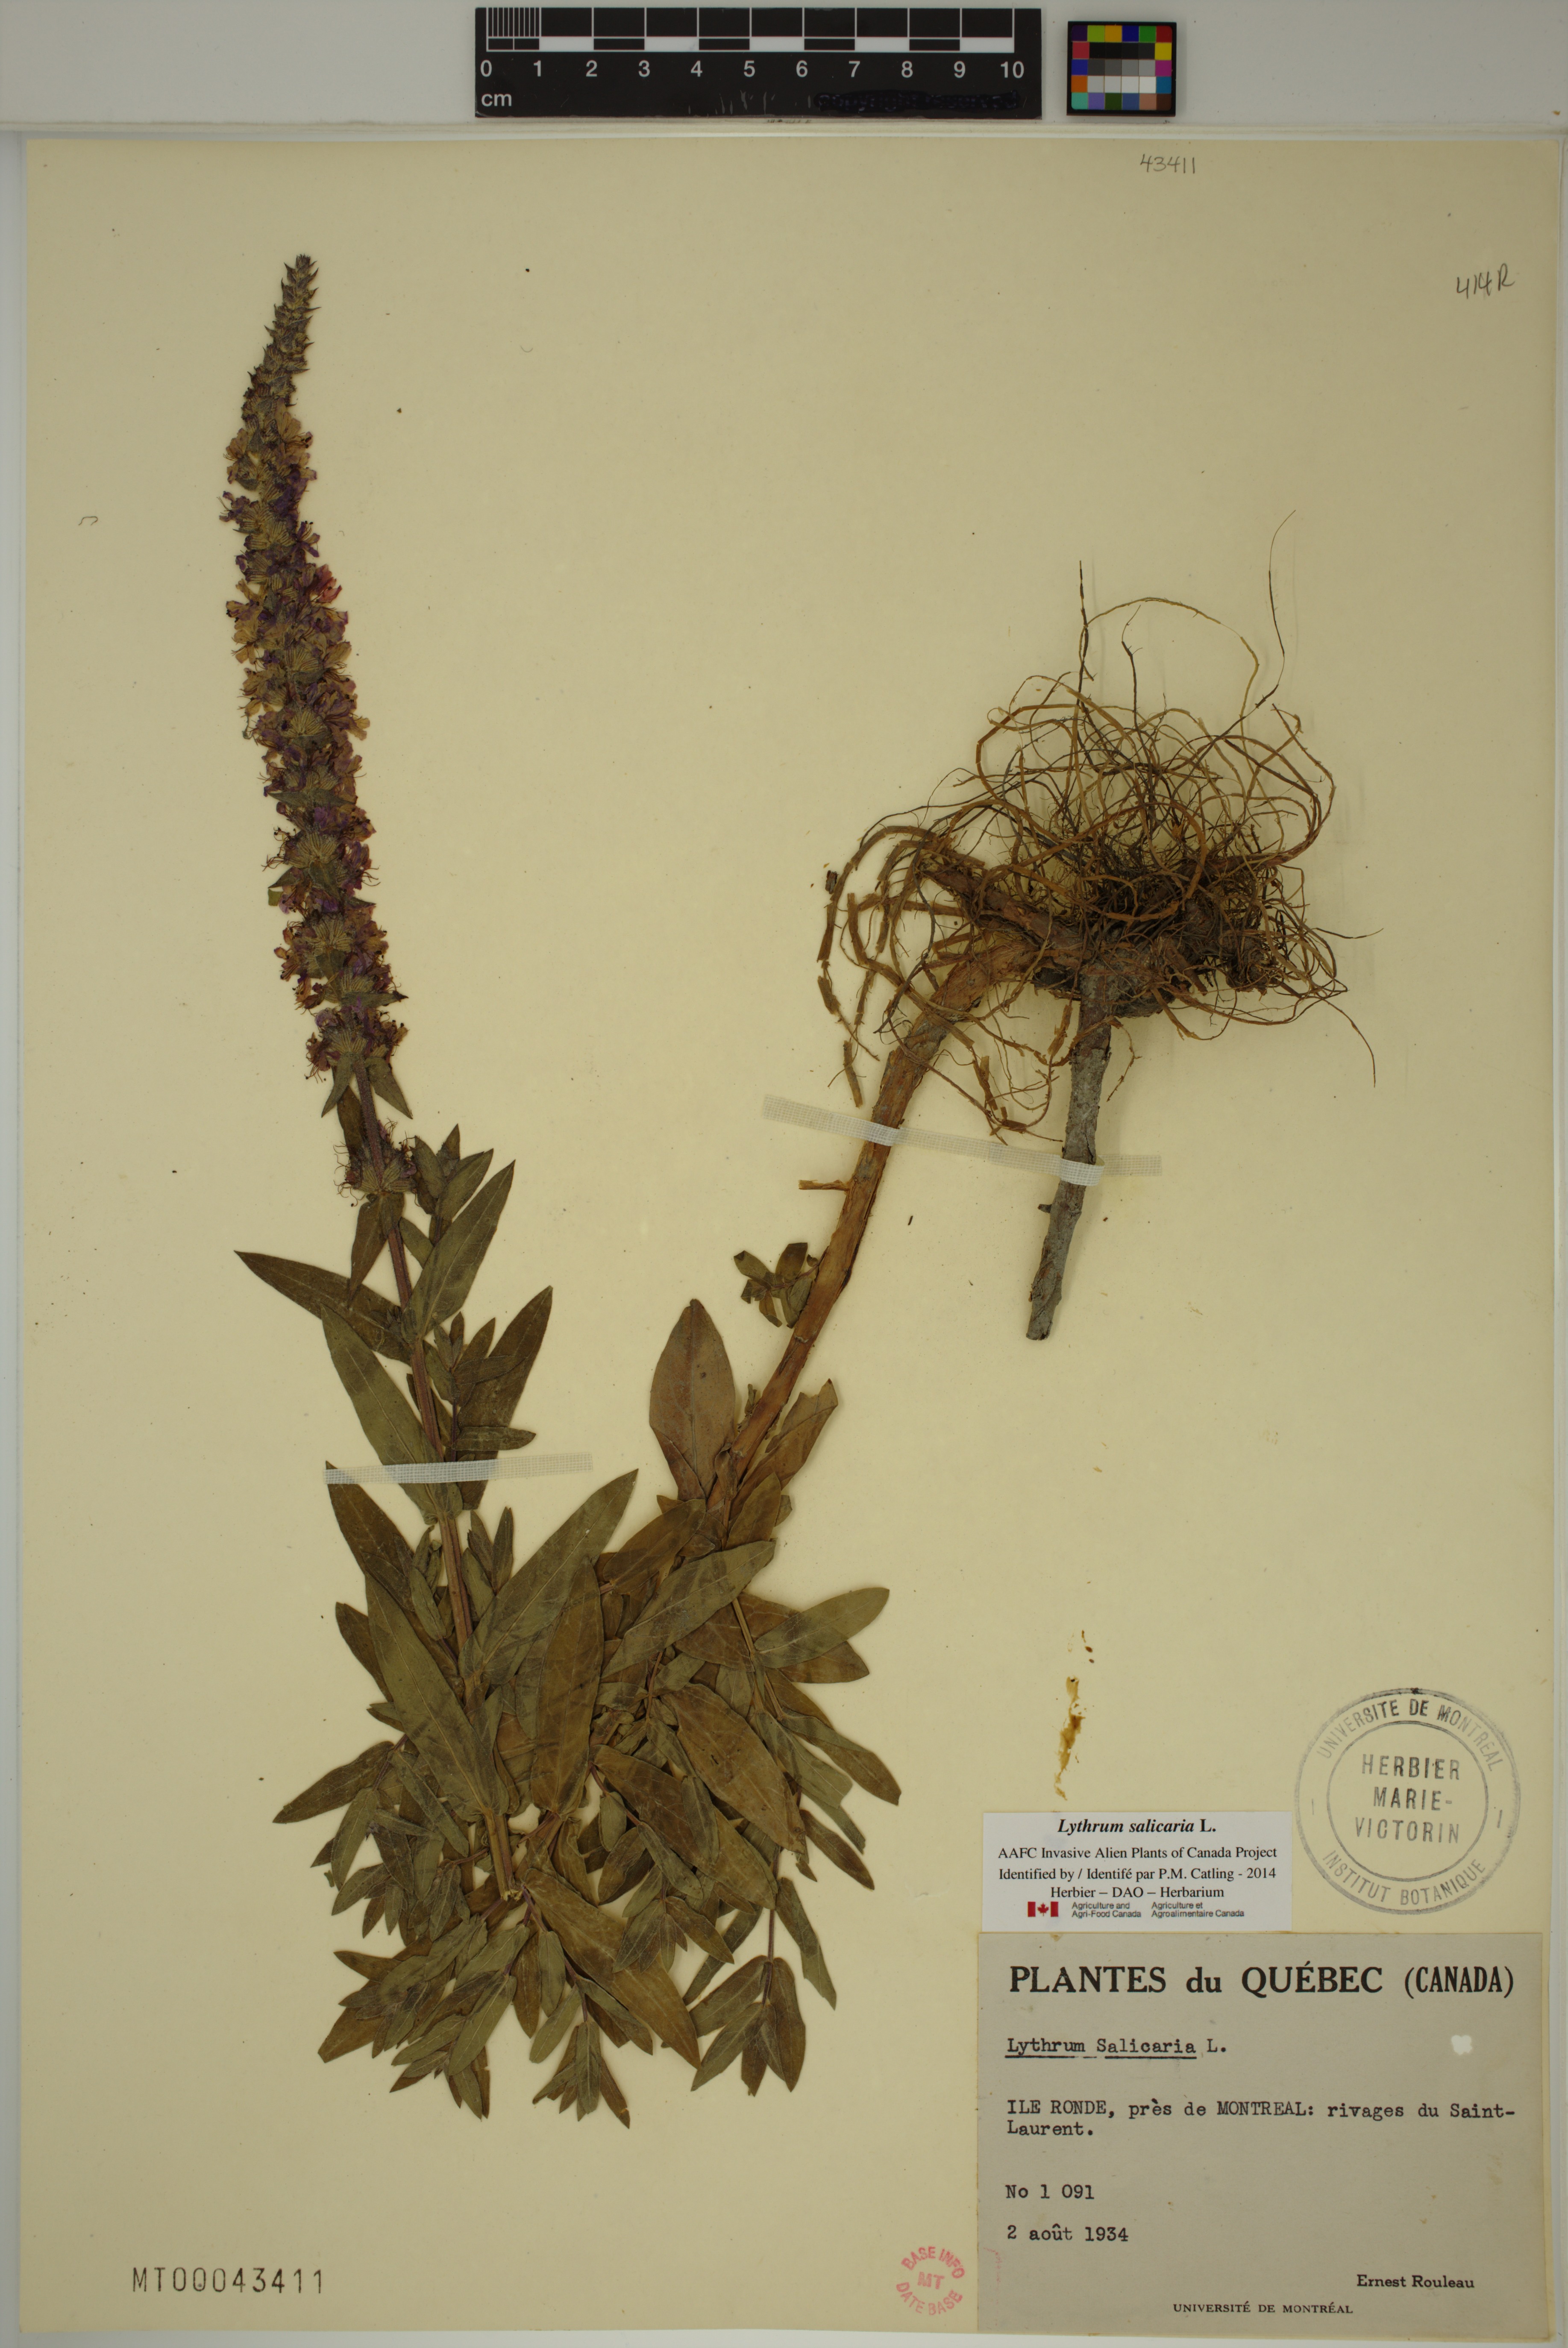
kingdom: Plantae
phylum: Tracheophyta
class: Magnoliopsida
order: Myrtales
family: Lythraceae
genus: Lythrum
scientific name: Lythrum salicaria
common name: Purple loosestrife
